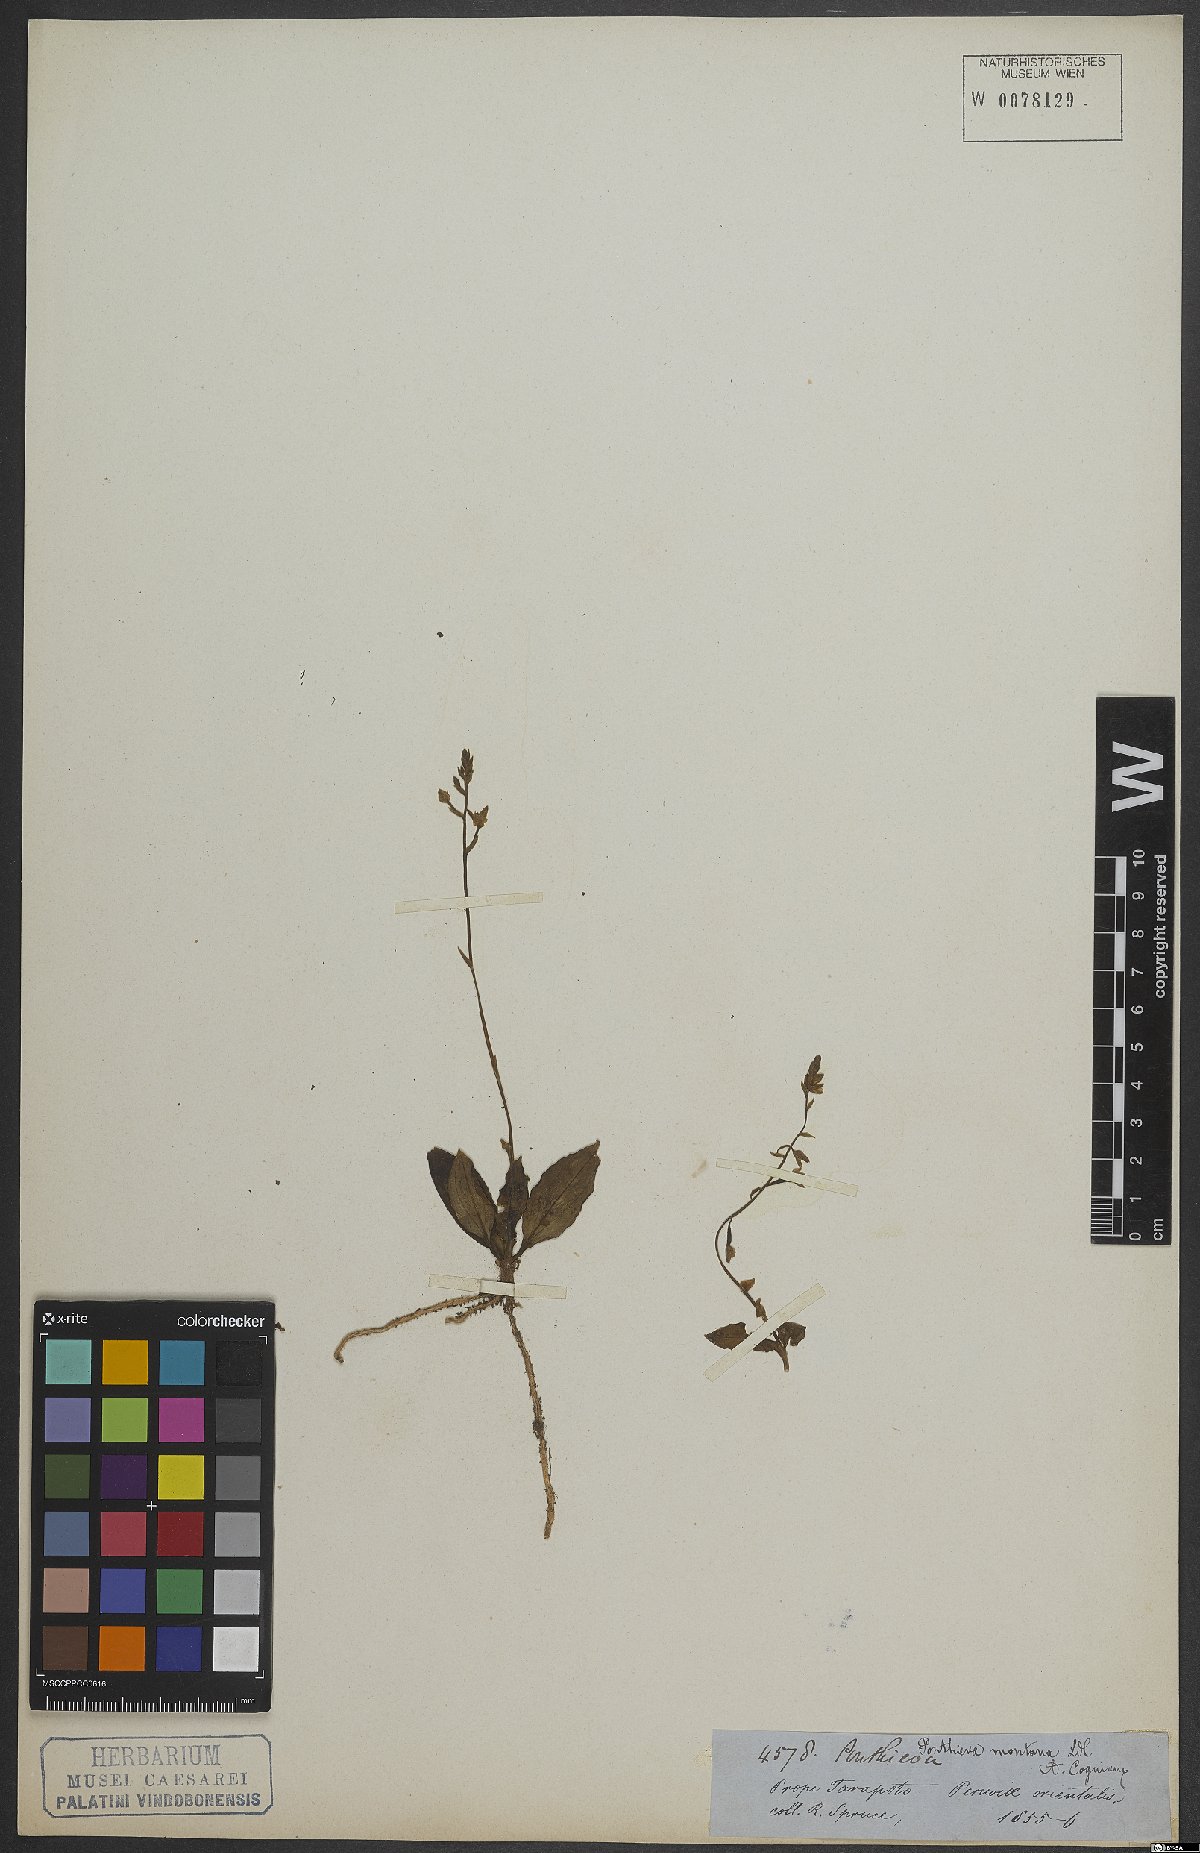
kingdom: Plantae
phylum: Tracheophyta
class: Liliopsida
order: Asparagales
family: Orchidaceae
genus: Ponthieva
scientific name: Ponthieva pubescens
